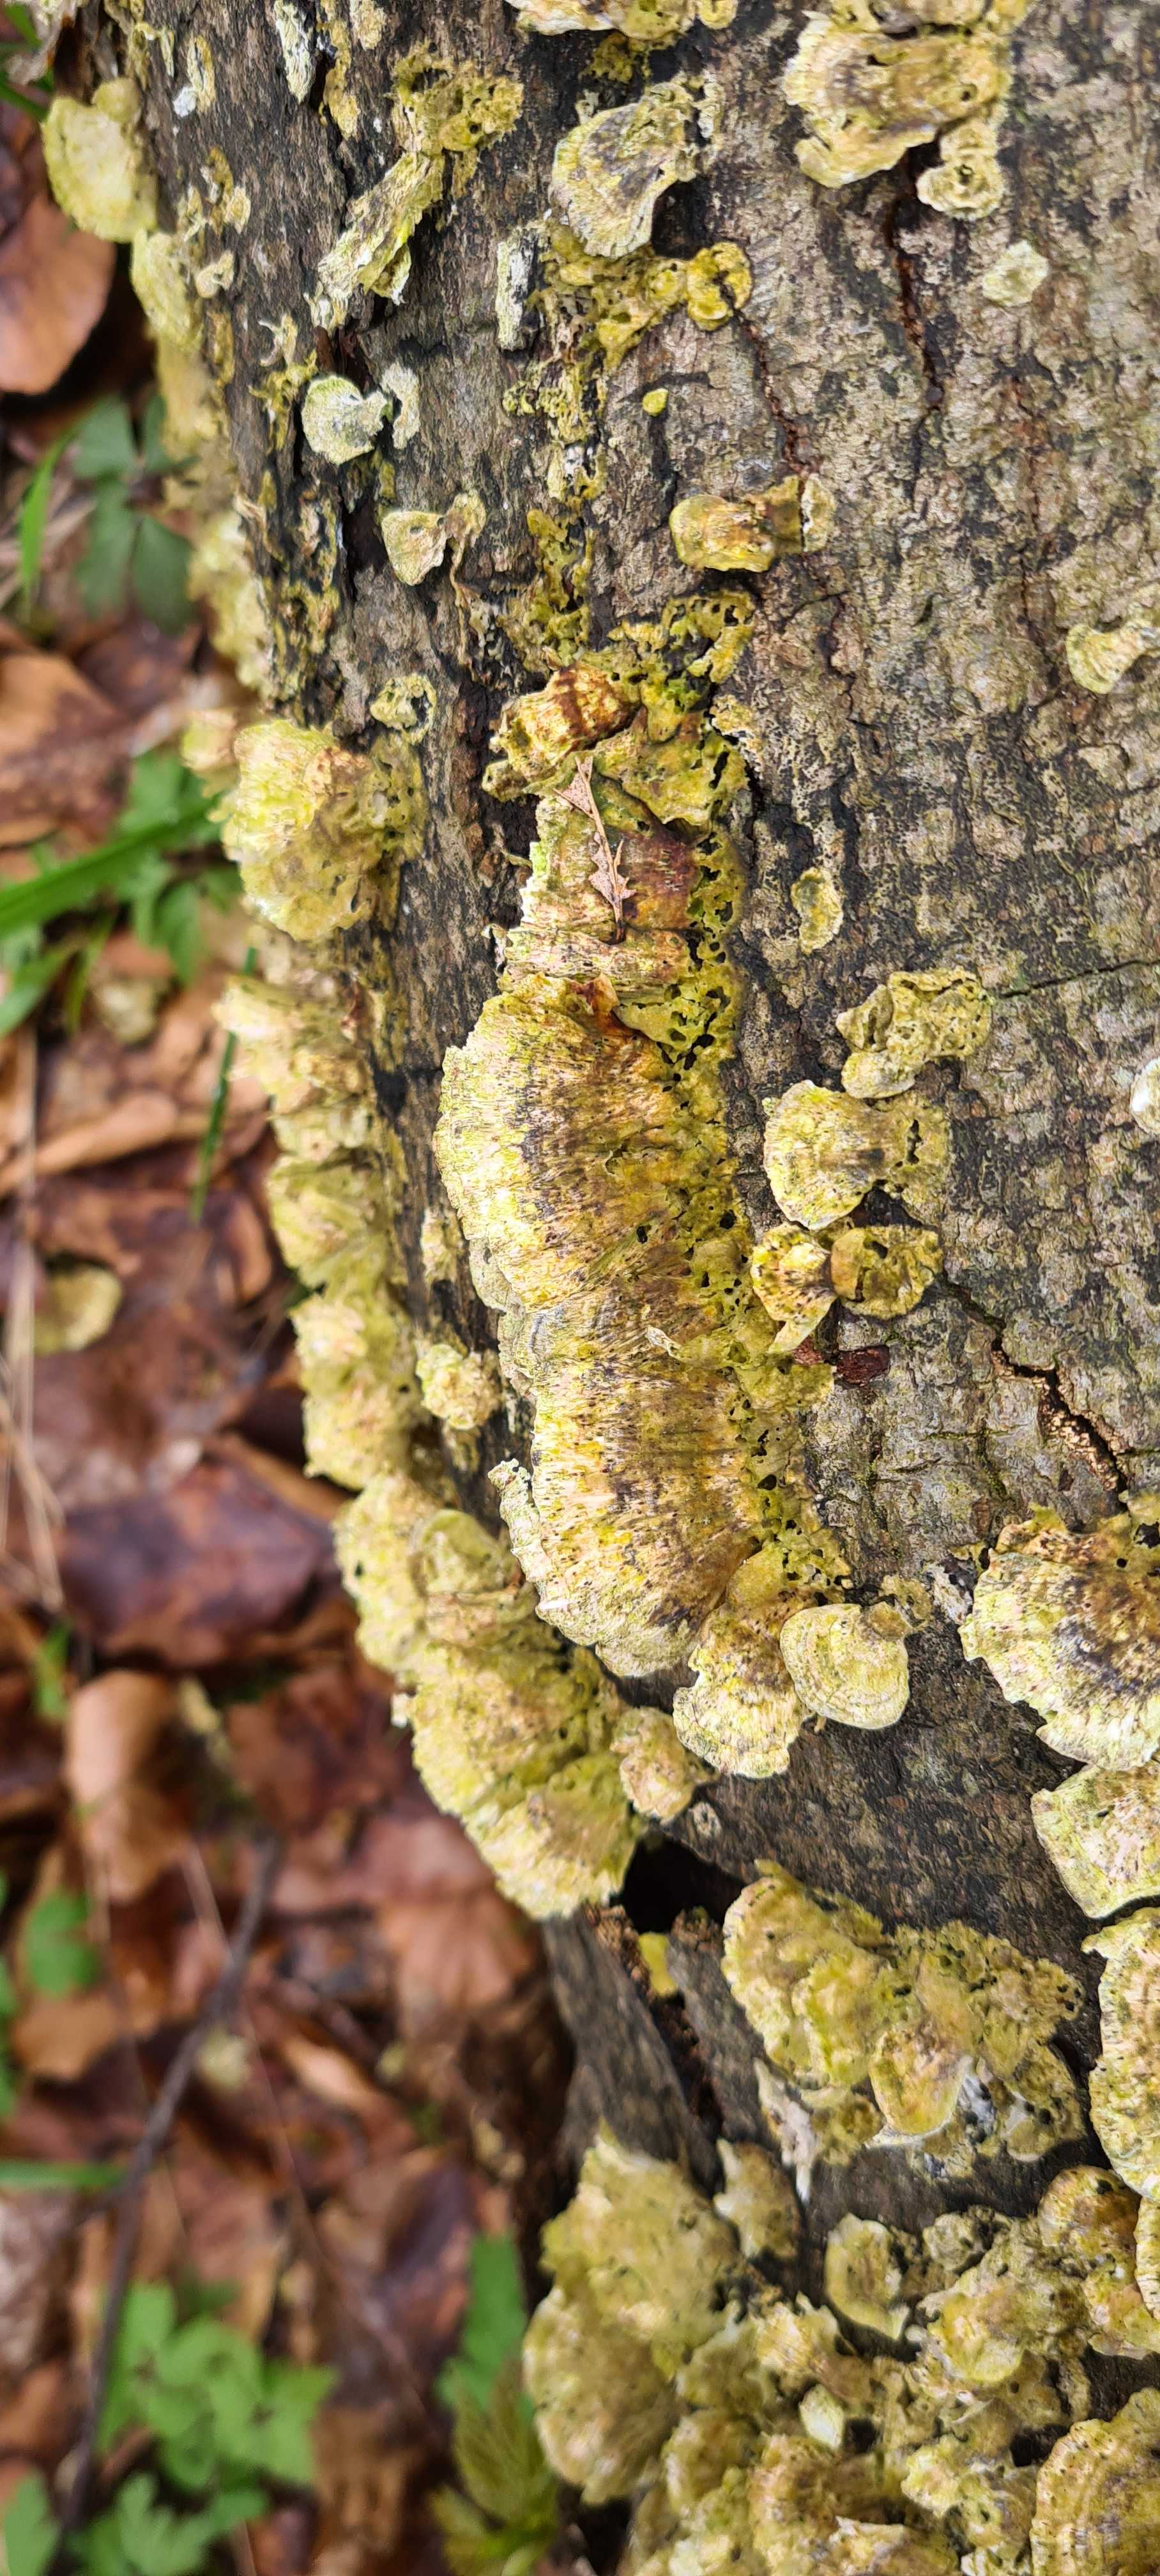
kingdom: Fungi
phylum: Basidiomycota
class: Agaricomycetes
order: Polyporales
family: Polyporaceae
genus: Trametes
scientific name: Trametes versicolor
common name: broget læderporesvamp
